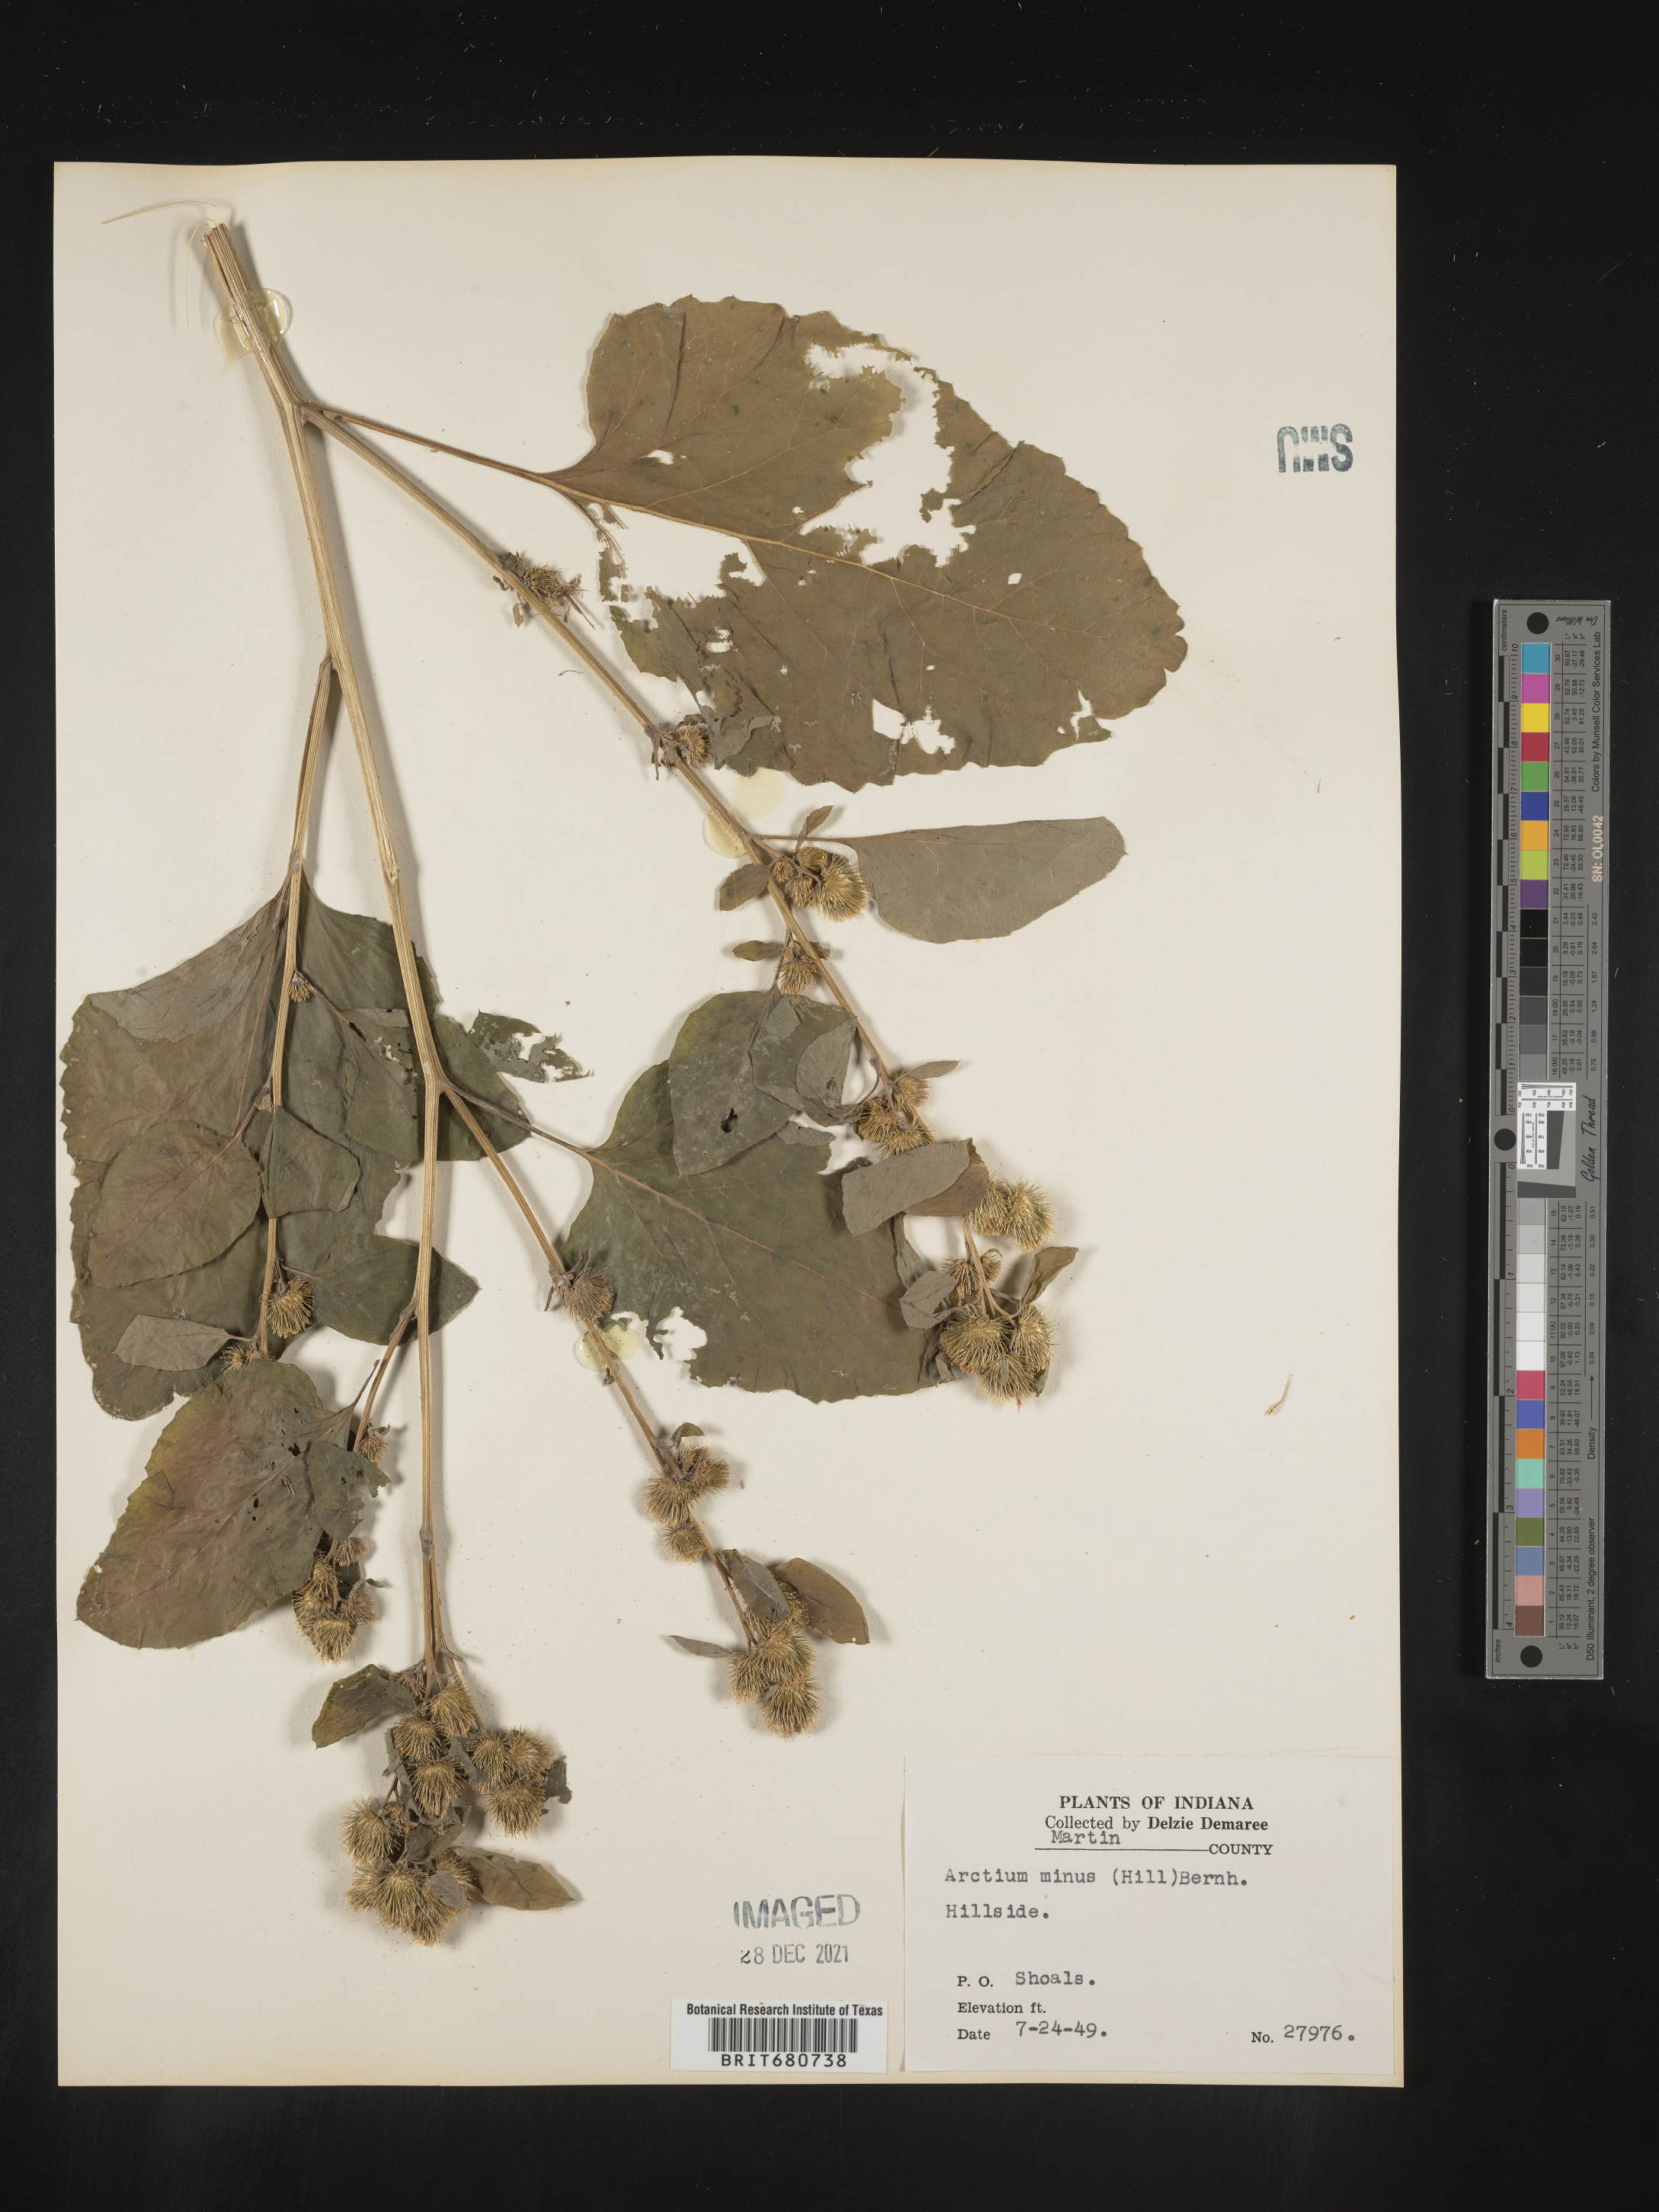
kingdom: Plantae
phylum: Tracheophyta
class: Magnoliopsida
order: Asterales
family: Asteraceae
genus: Arctium
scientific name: Arctium minus
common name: Lesser burdock
